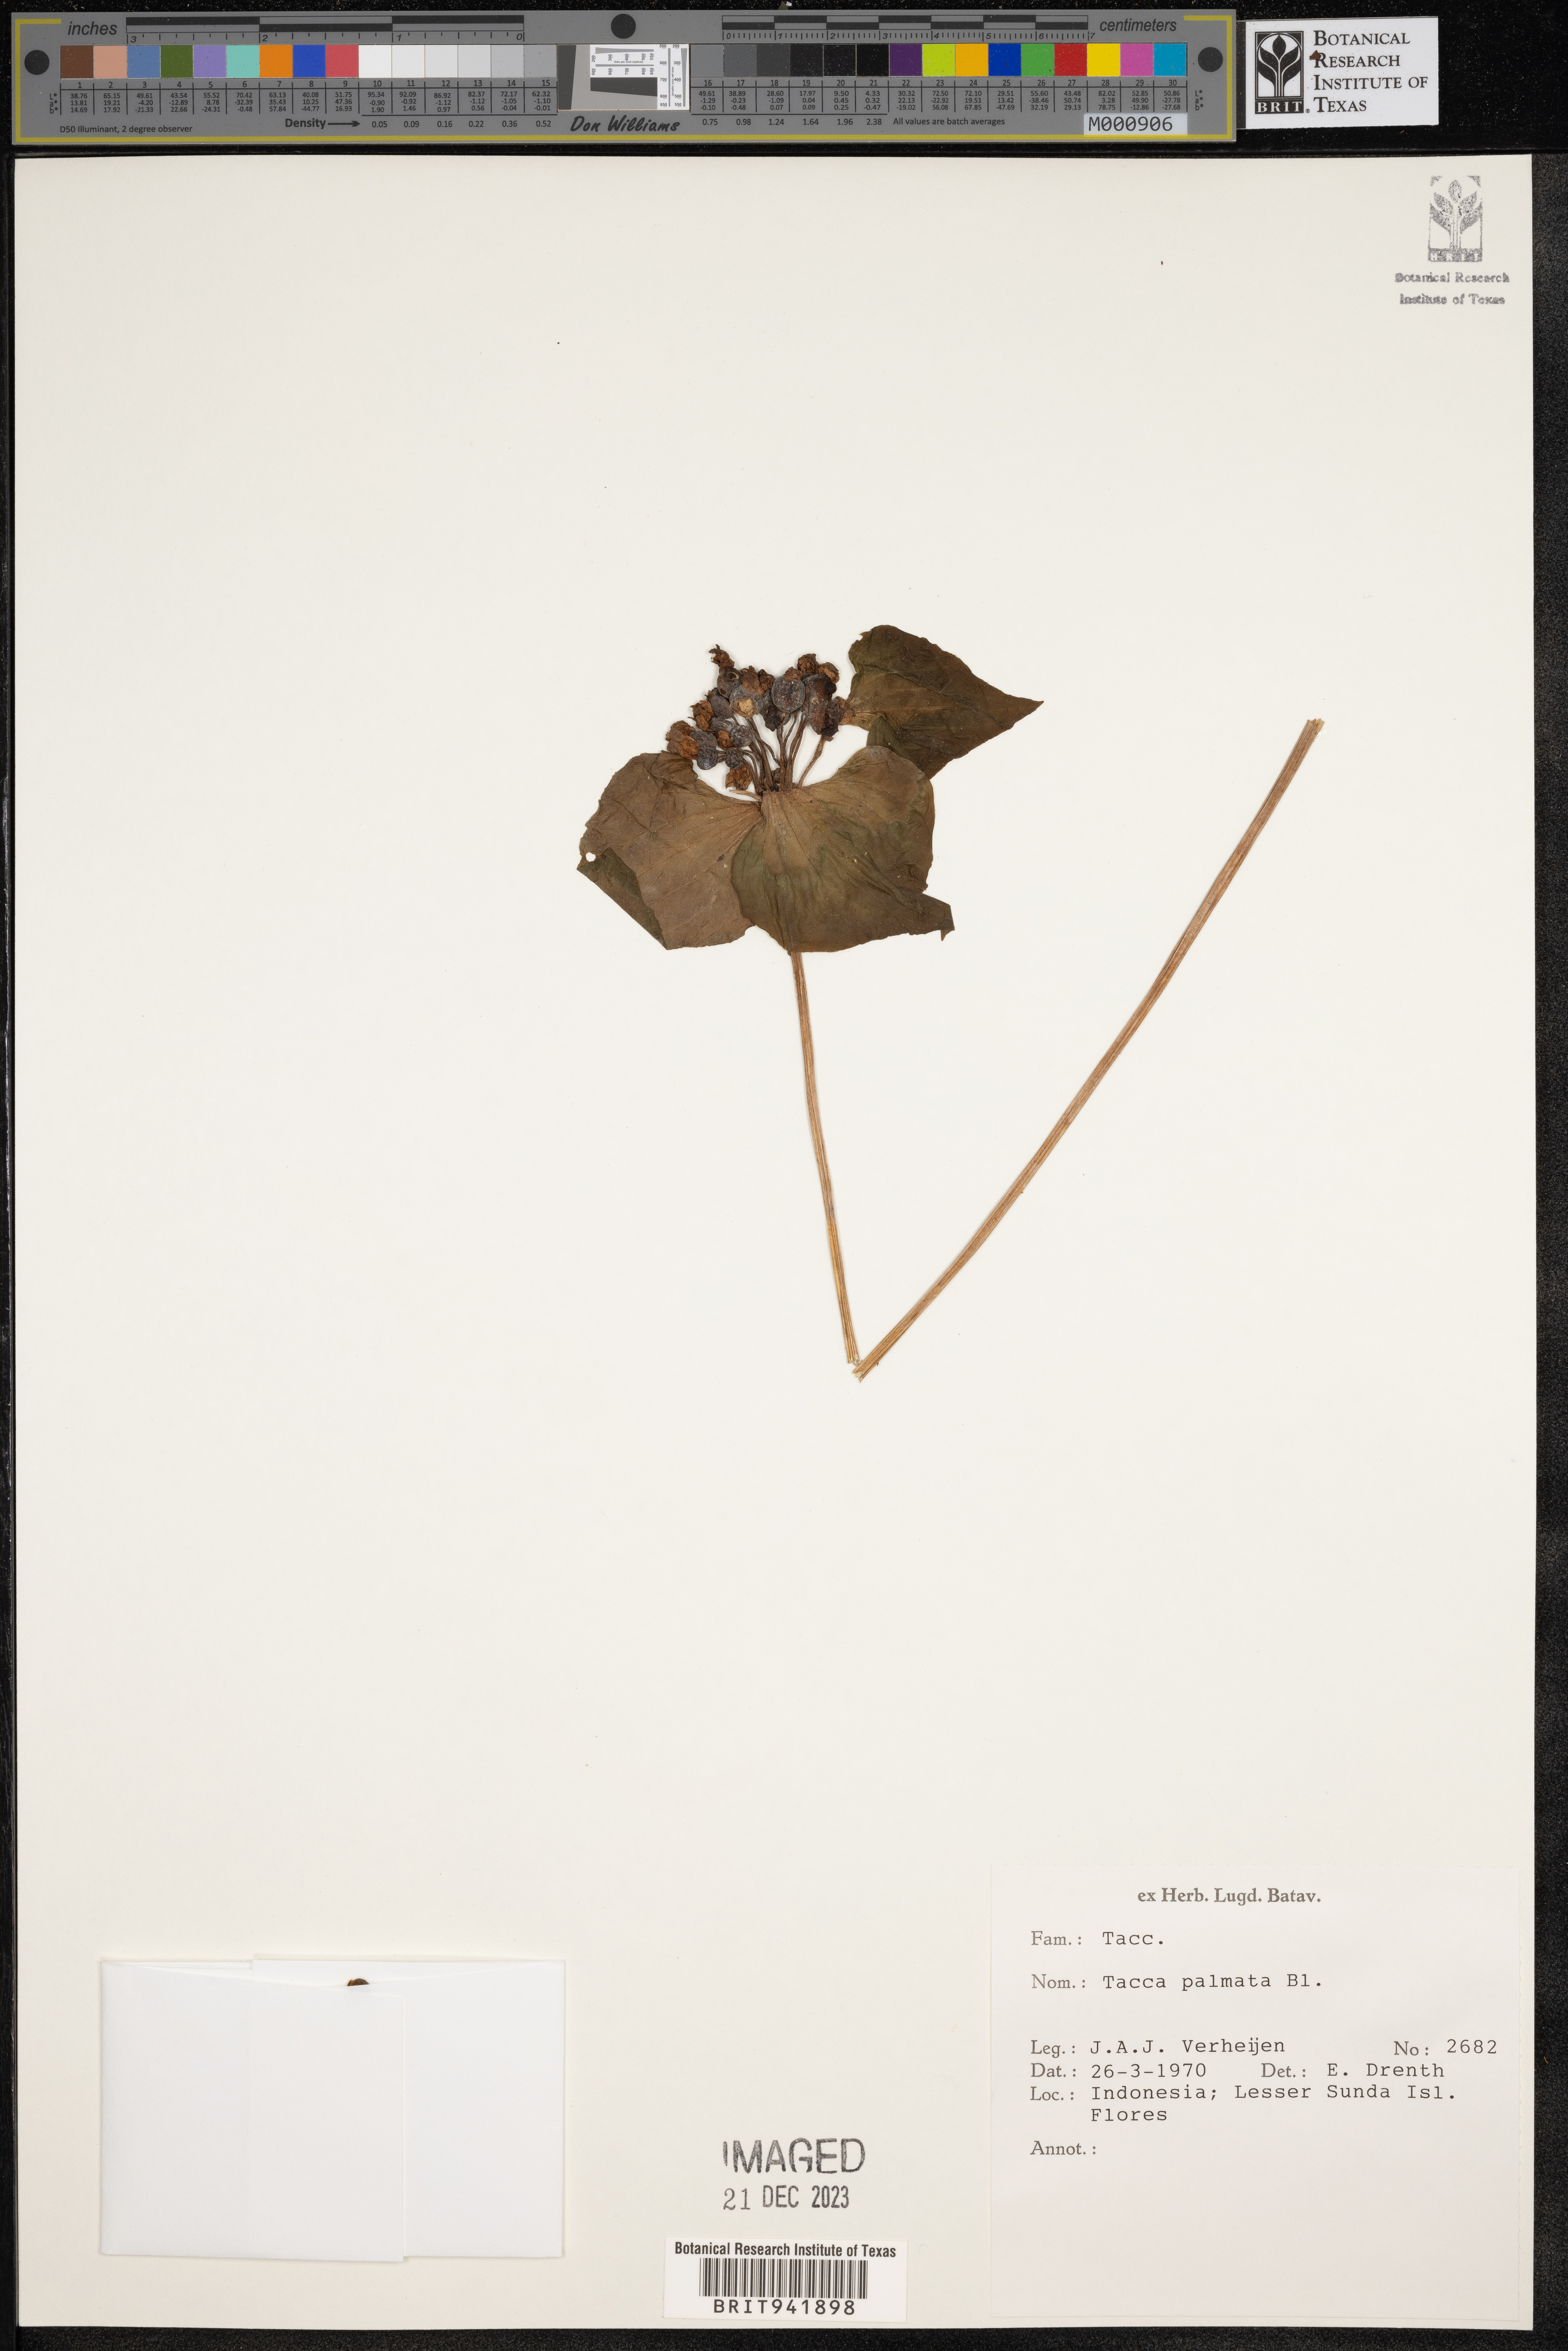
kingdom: Plantae
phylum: Tracheophyta
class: Liliopsida
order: Dioscoreales
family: Dioscoreaceae
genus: Tacca
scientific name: Tacca
